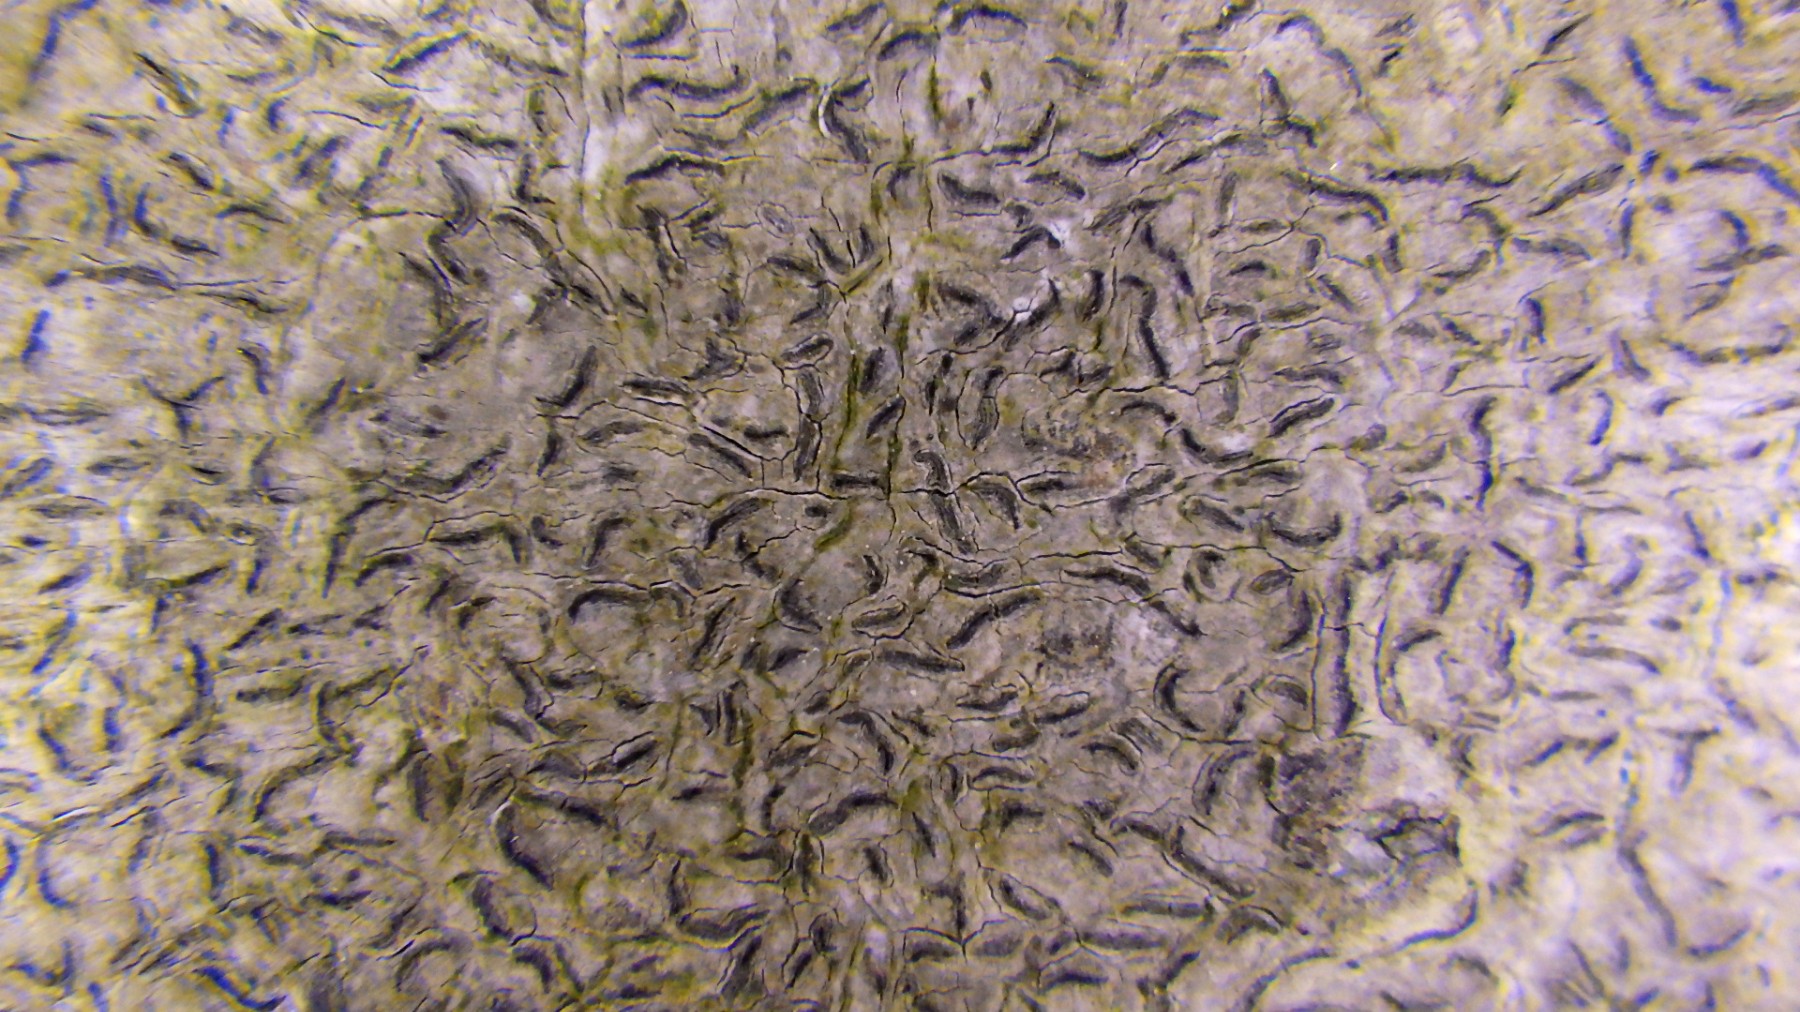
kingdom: Fungi
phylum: Ascomycota
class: Lecanoromycetes
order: Ostropales
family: Graphidaceae
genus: Graphis
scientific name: Graphis scripta
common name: almindelig skriftlav
